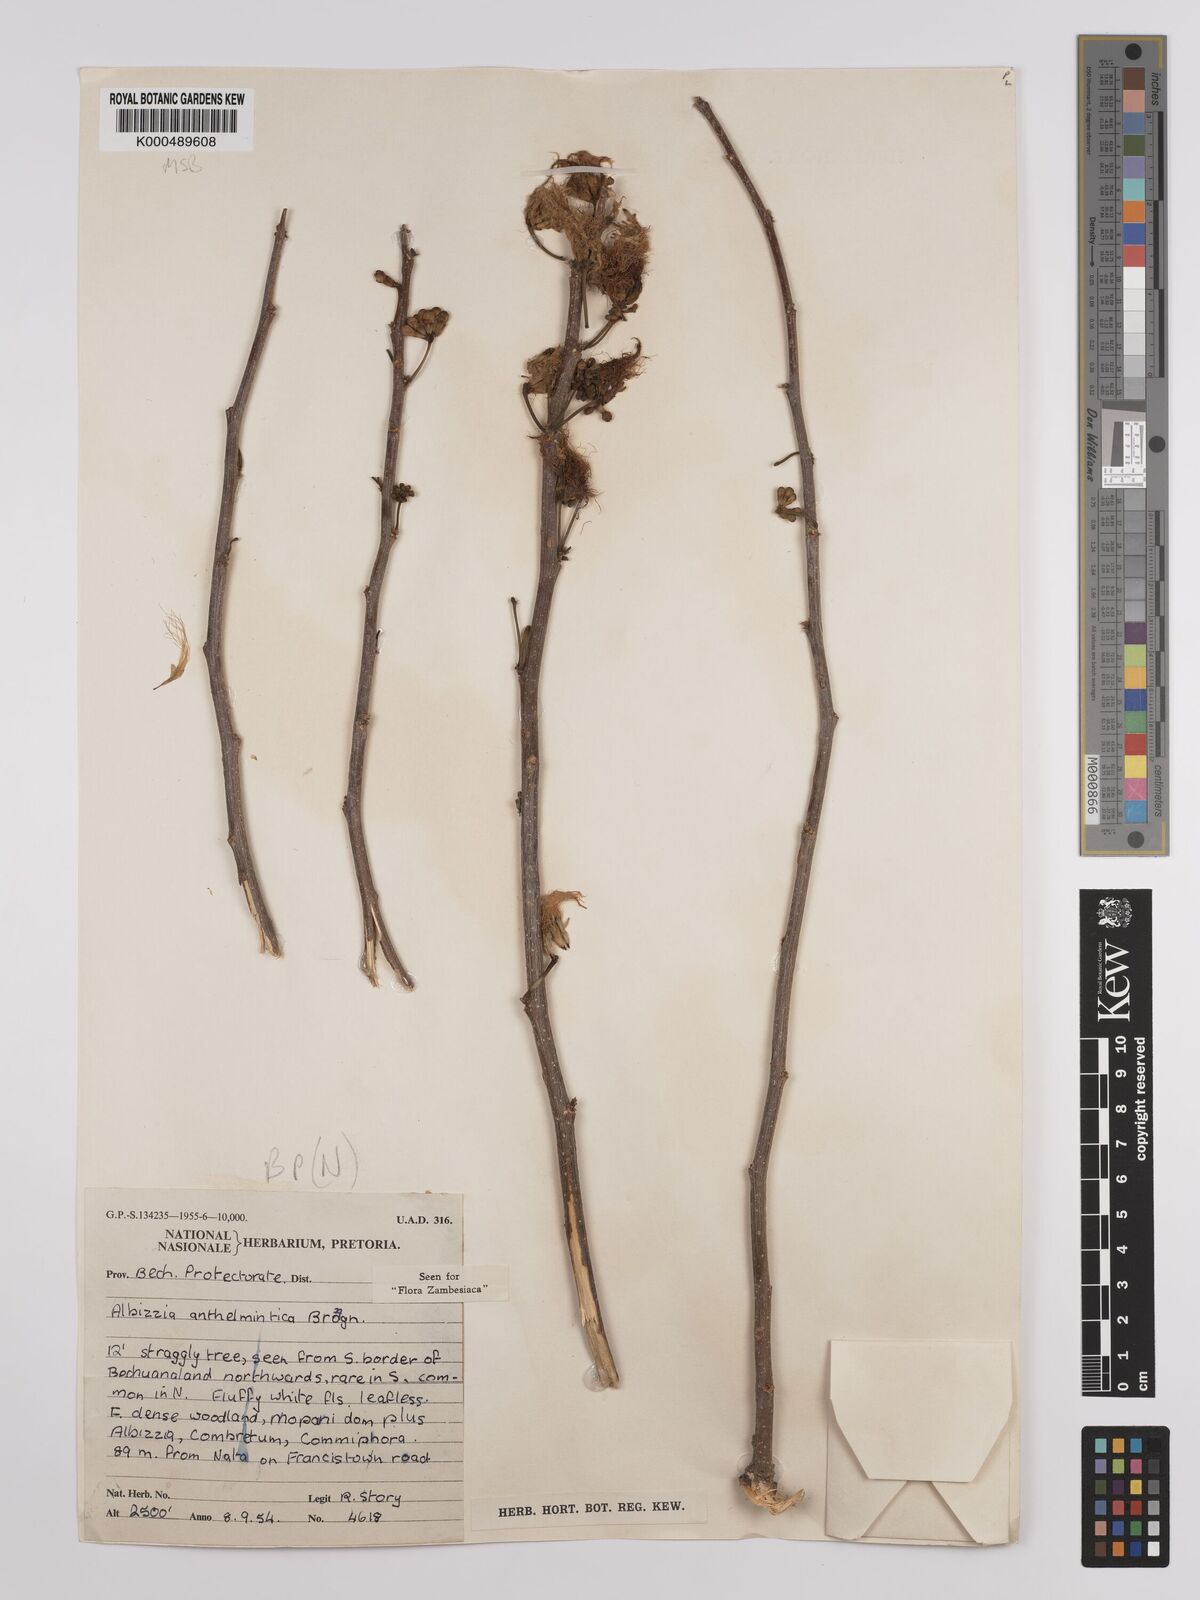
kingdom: Plantae
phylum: Tracheophyta
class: Magnoliopsida
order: Fabales
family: Fabaceae
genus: Albizia
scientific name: Albizia anthelmintica
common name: Worm-bark false-thorn
